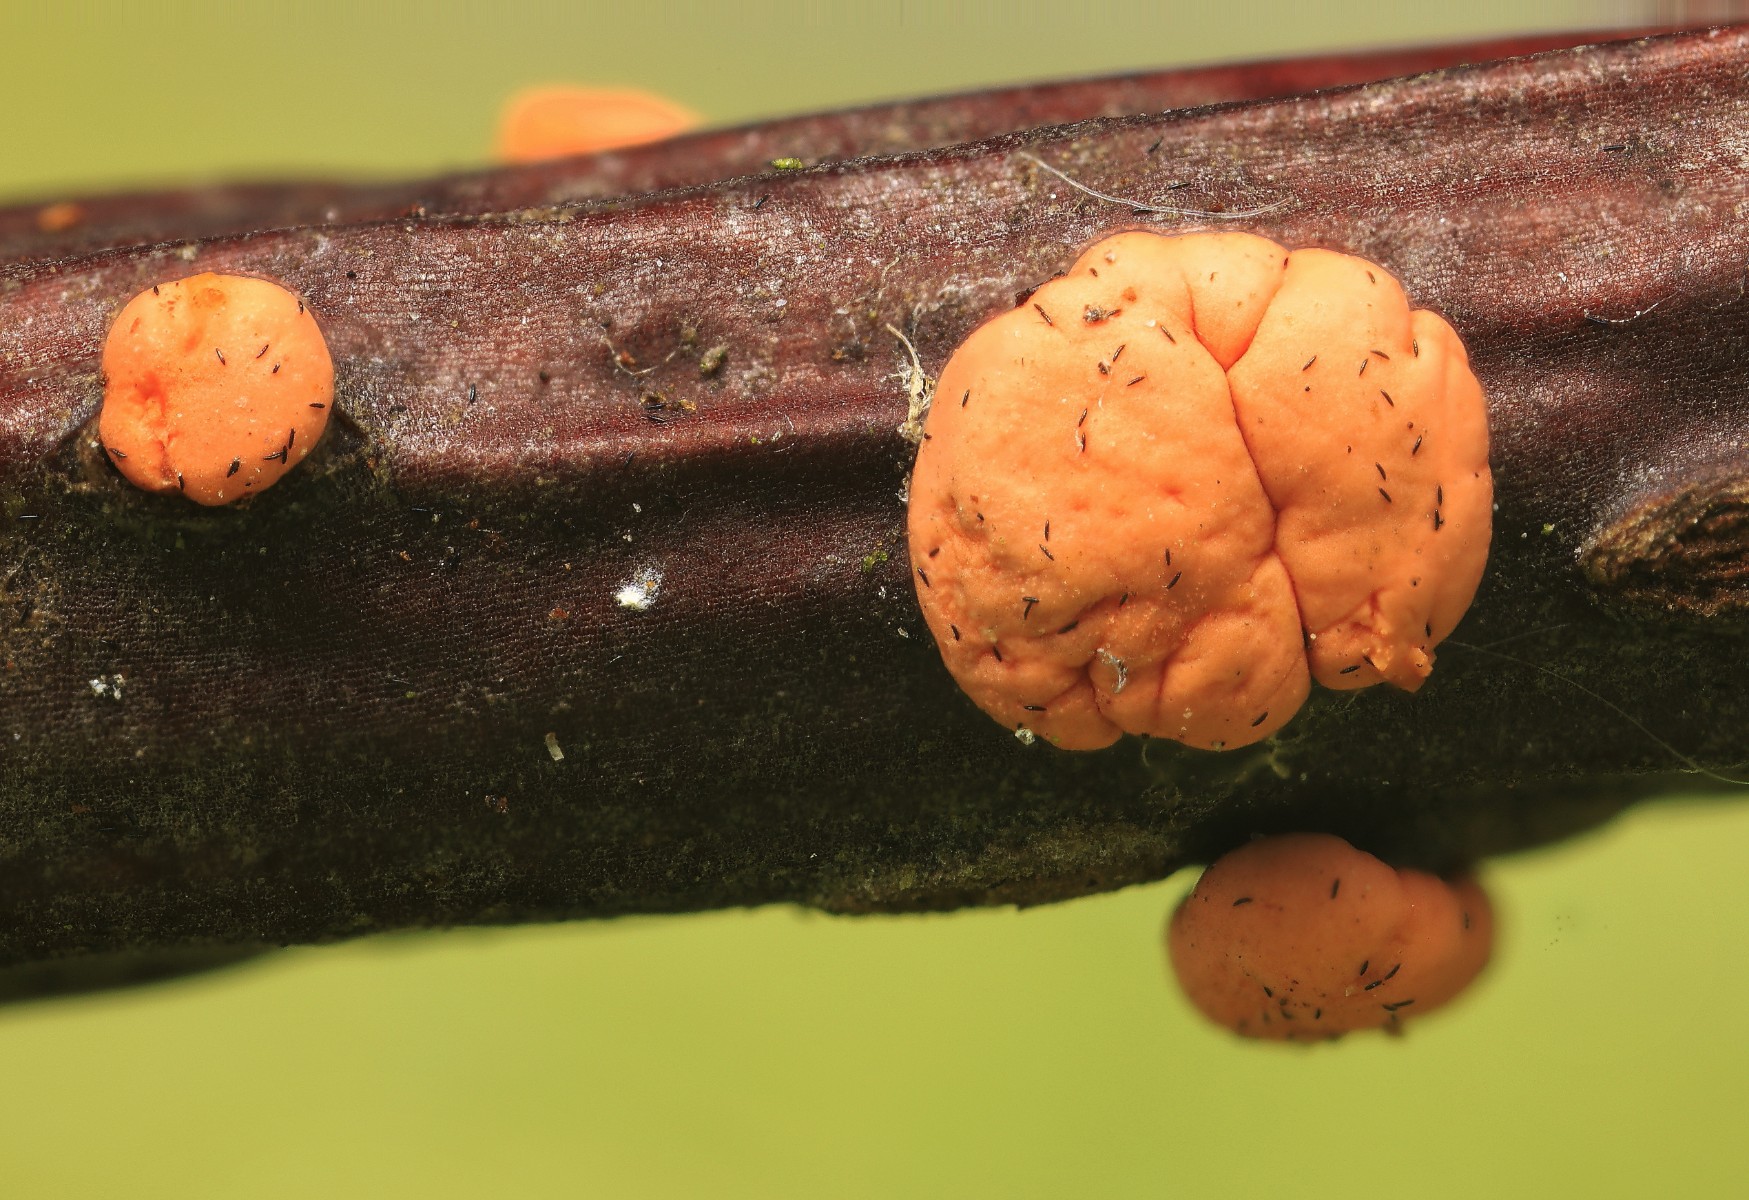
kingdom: Fungi
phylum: Ascomycota
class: Sordariomycetes
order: Hypocreales
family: Nectriaceae
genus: Nectria
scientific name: Nectria cinnabarina
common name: almindelig cinnobersvamp
